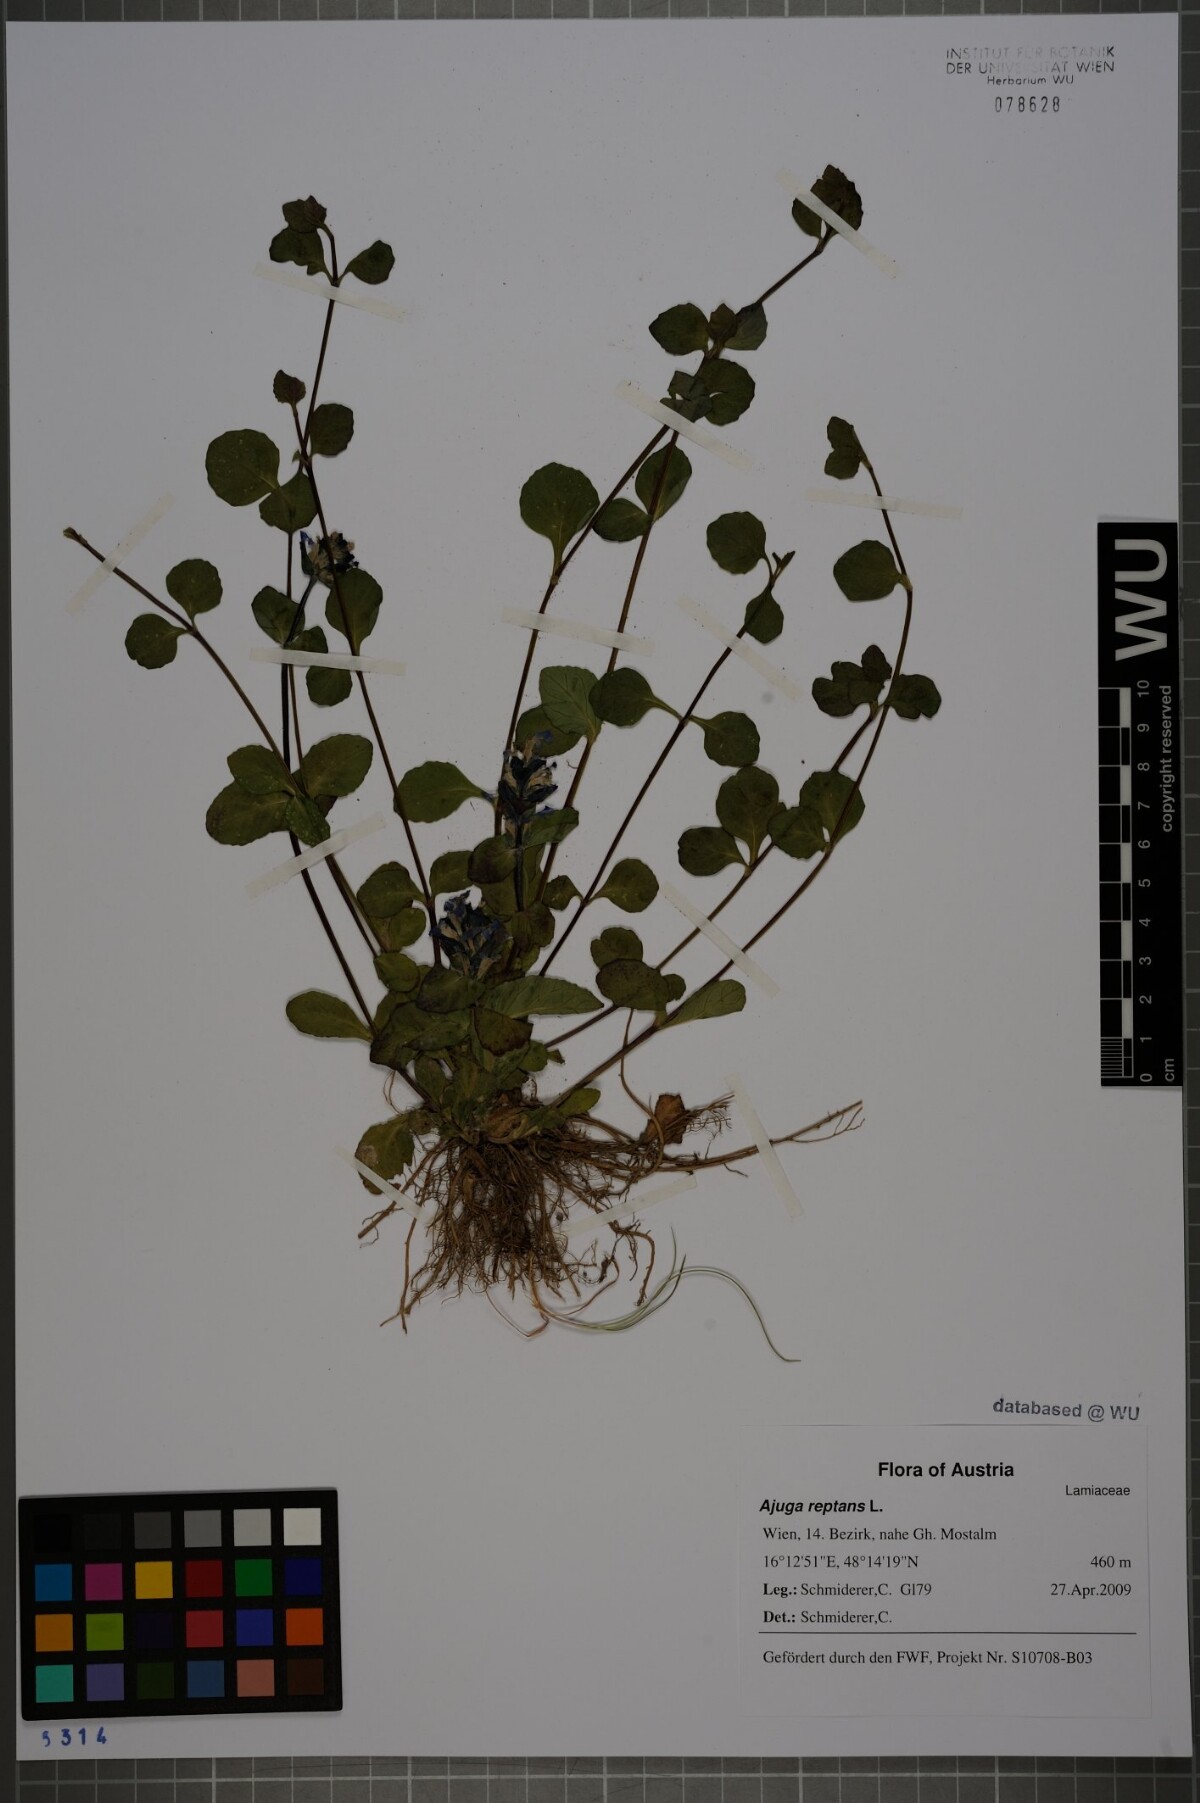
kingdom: Plantae
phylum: Tracheophyta
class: Magnoliopsida
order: Lamiales
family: Lamiaceae
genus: Ajuga
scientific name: Ajuga reptans
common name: Bugle
